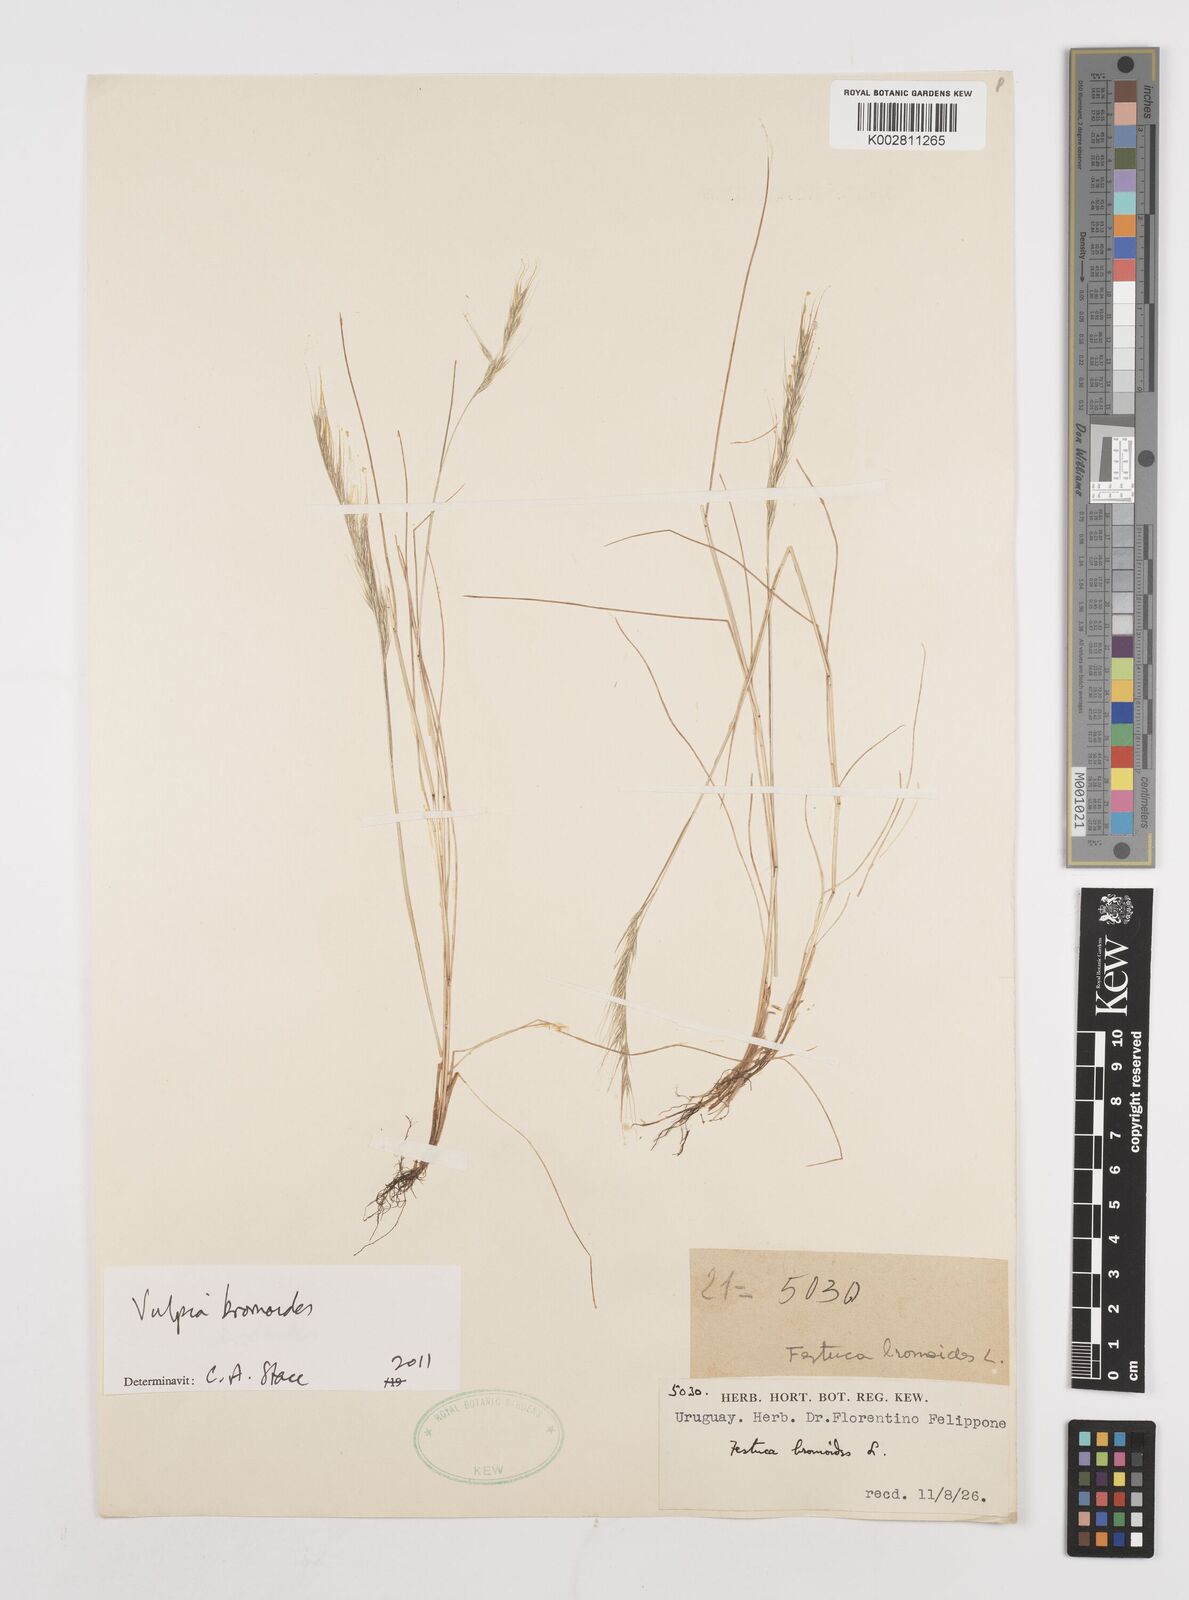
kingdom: Plantae
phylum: Tracheophyta
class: Liliopsida
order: Poales
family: Poaceae
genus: Festuca
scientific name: Festuca bromoides
